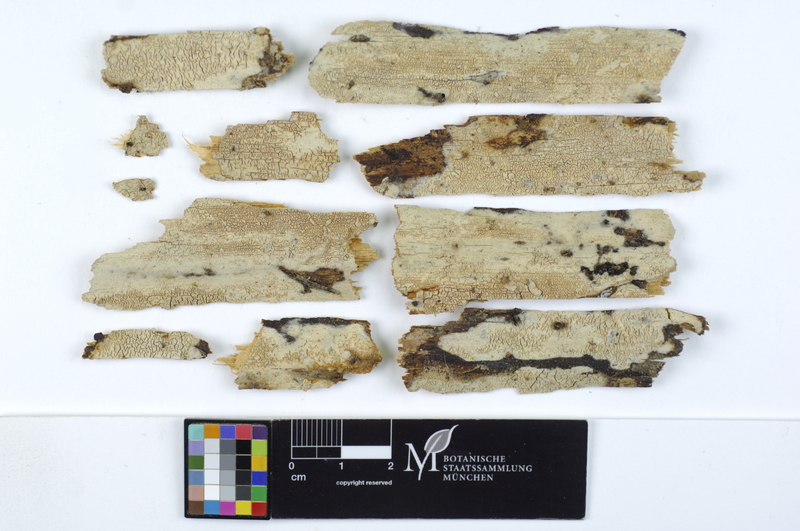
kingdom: Plantae
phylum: Tracheophyta
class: Pinopsida
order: Pinales
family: Pinaceae
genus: Picea
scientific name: Picea
